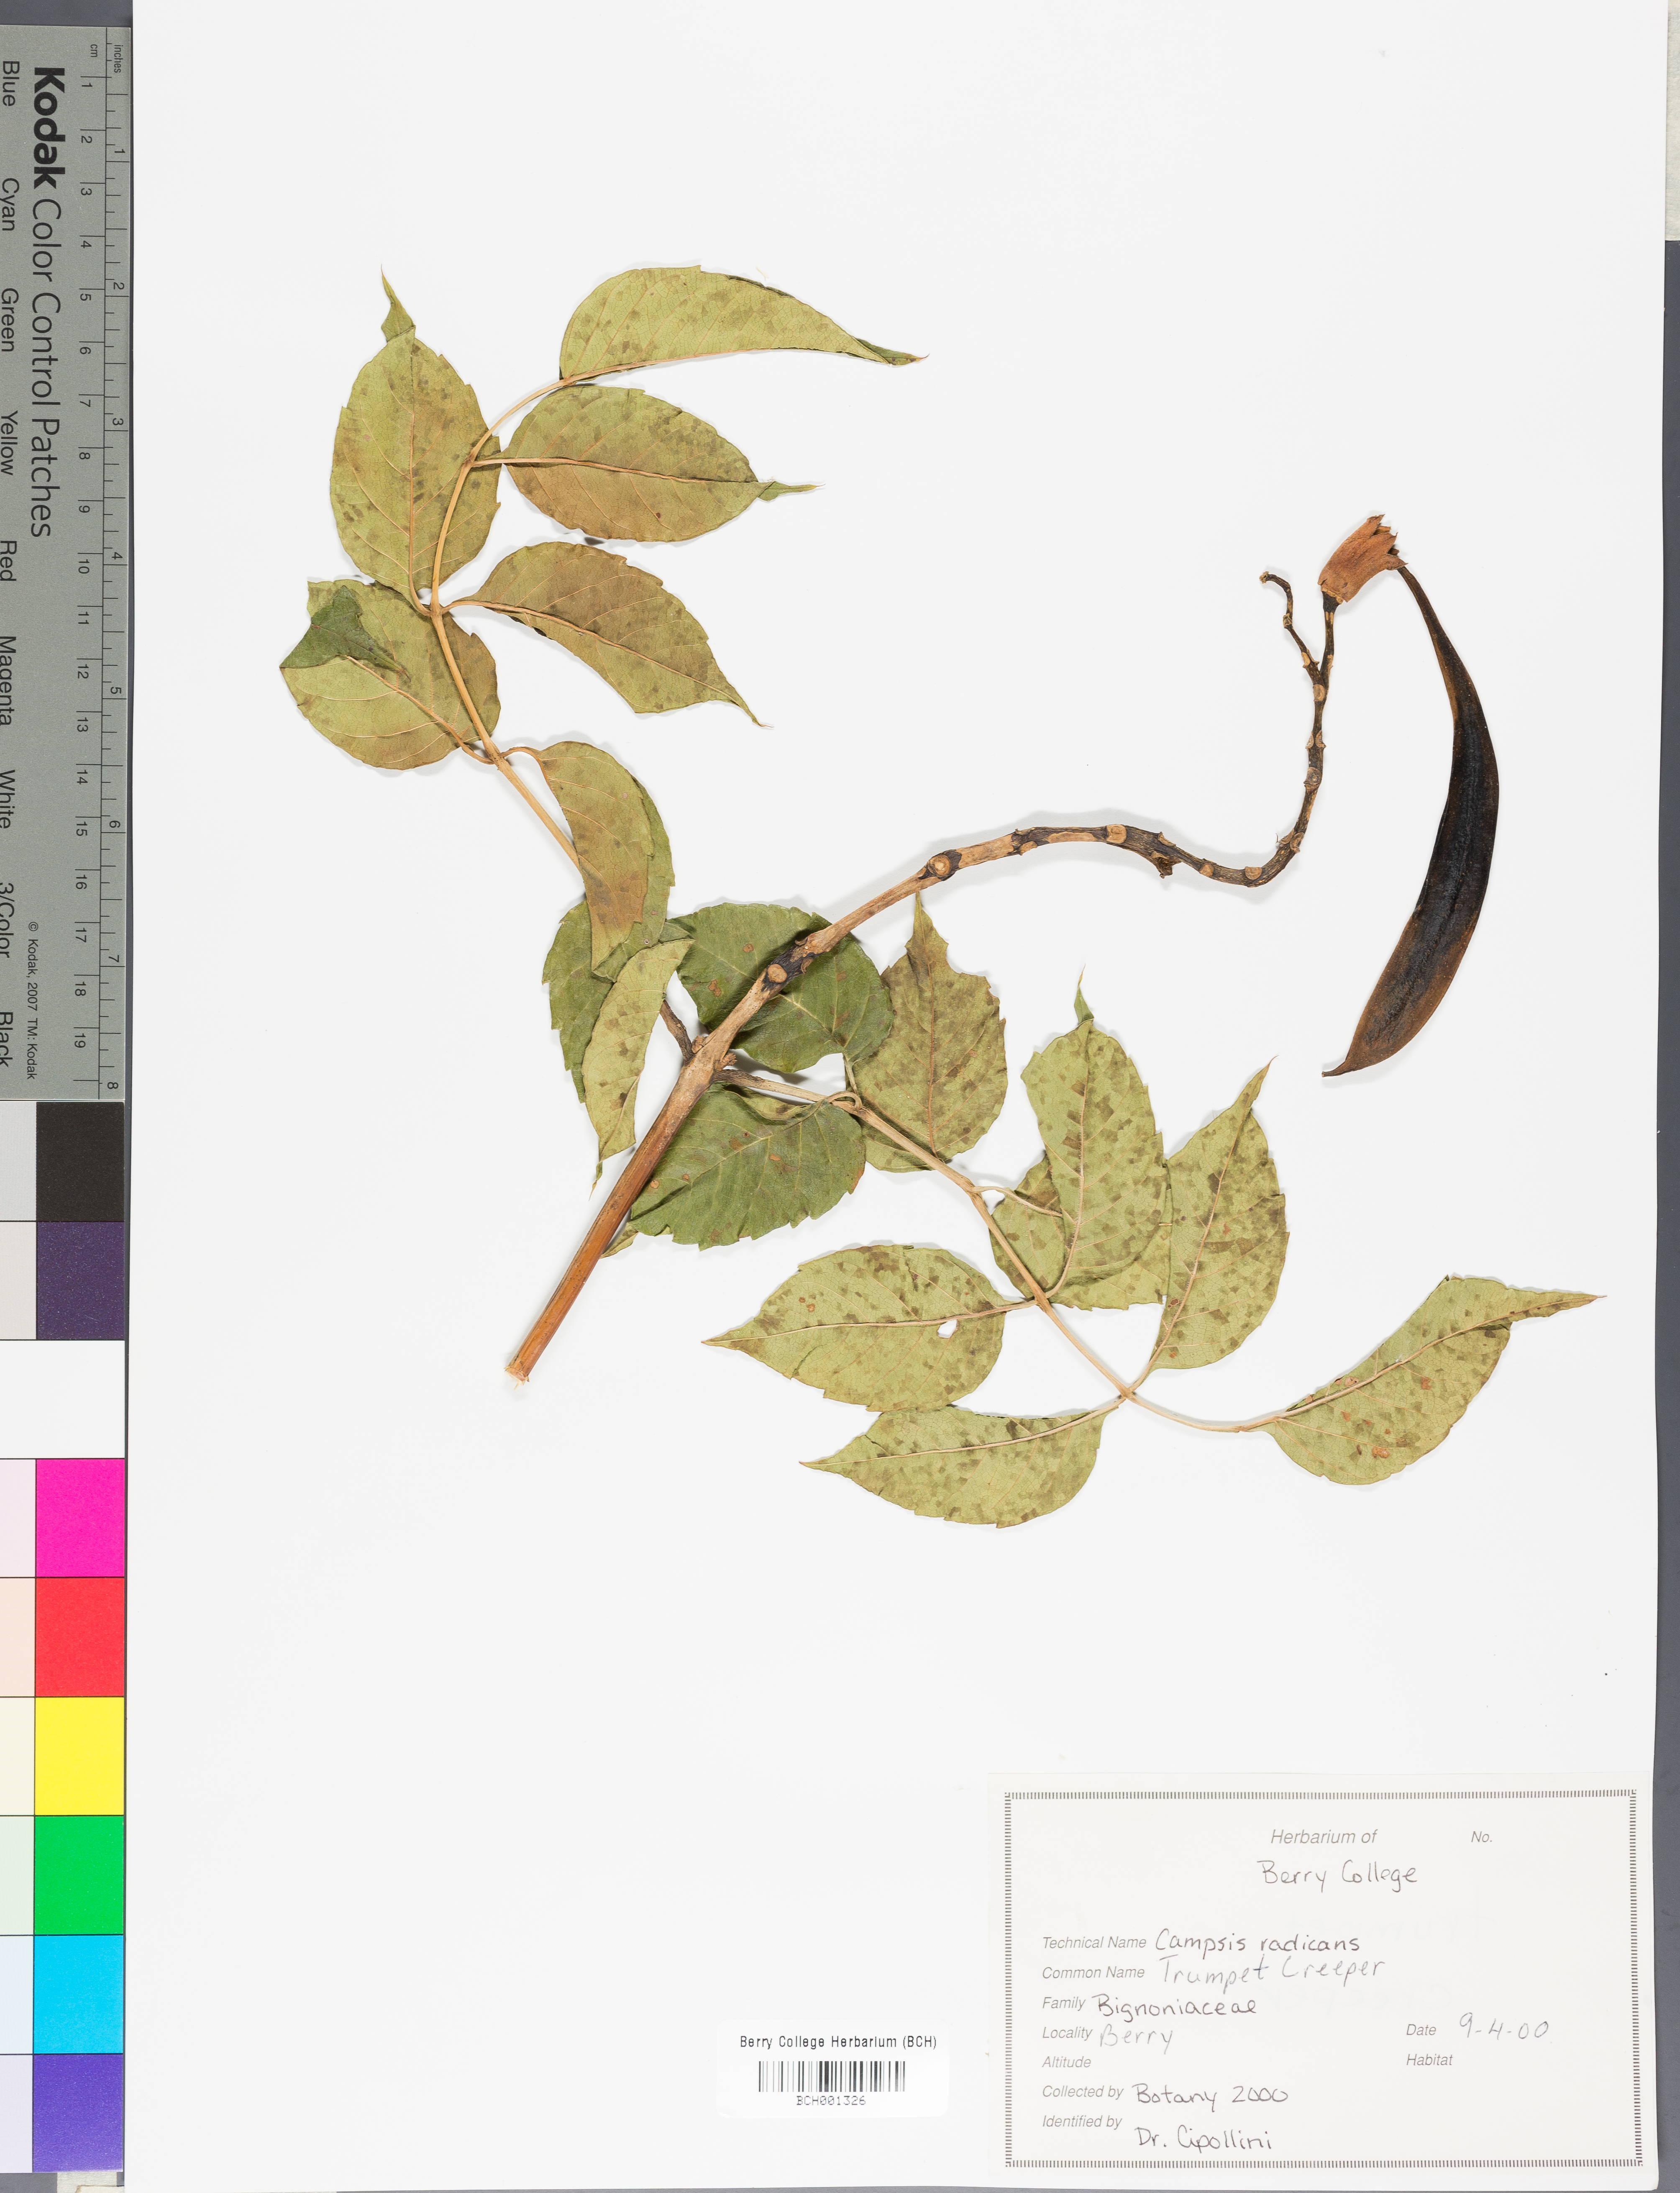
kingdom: Plantae
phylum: Tracheophyta
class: Magnoliopsida
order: Lamiales
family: Bignoniaceae
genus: Campsis
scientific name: Campsis radicans
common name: Trumpet-creeper
